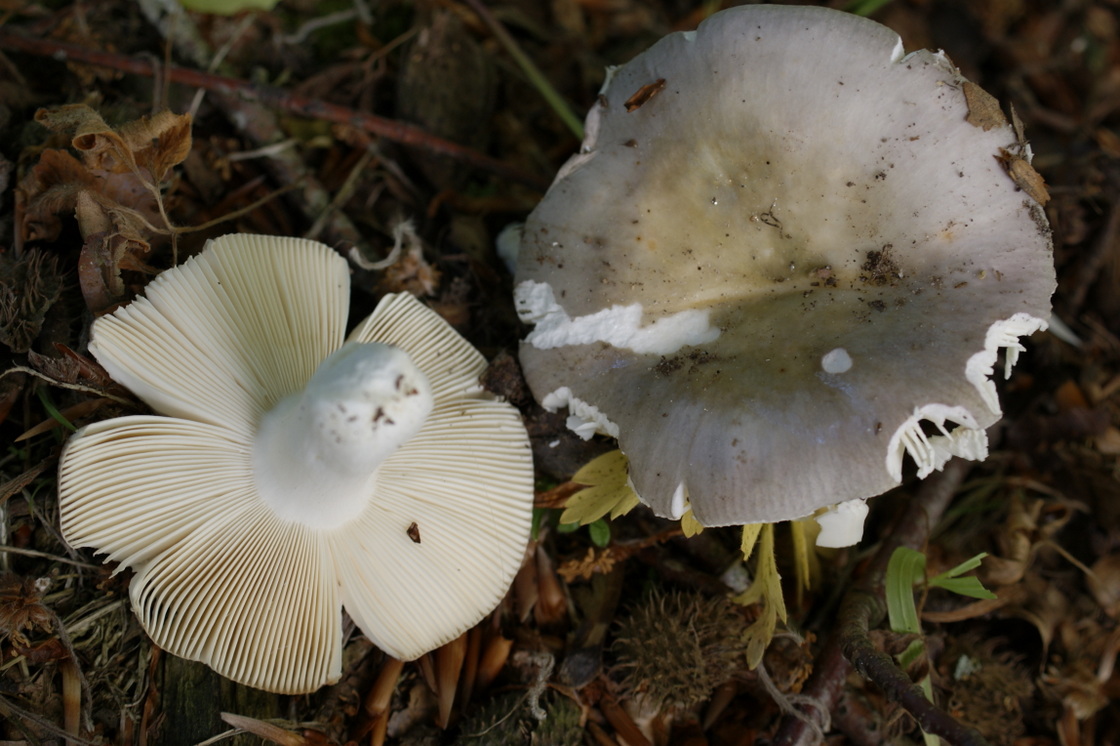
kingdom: Fungi
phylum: Basidiomycota
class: Agaricomycetes
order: Russulales
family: Russulaceae
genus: Russula
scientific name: Russula cyanoxantha
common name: broget skørhat
